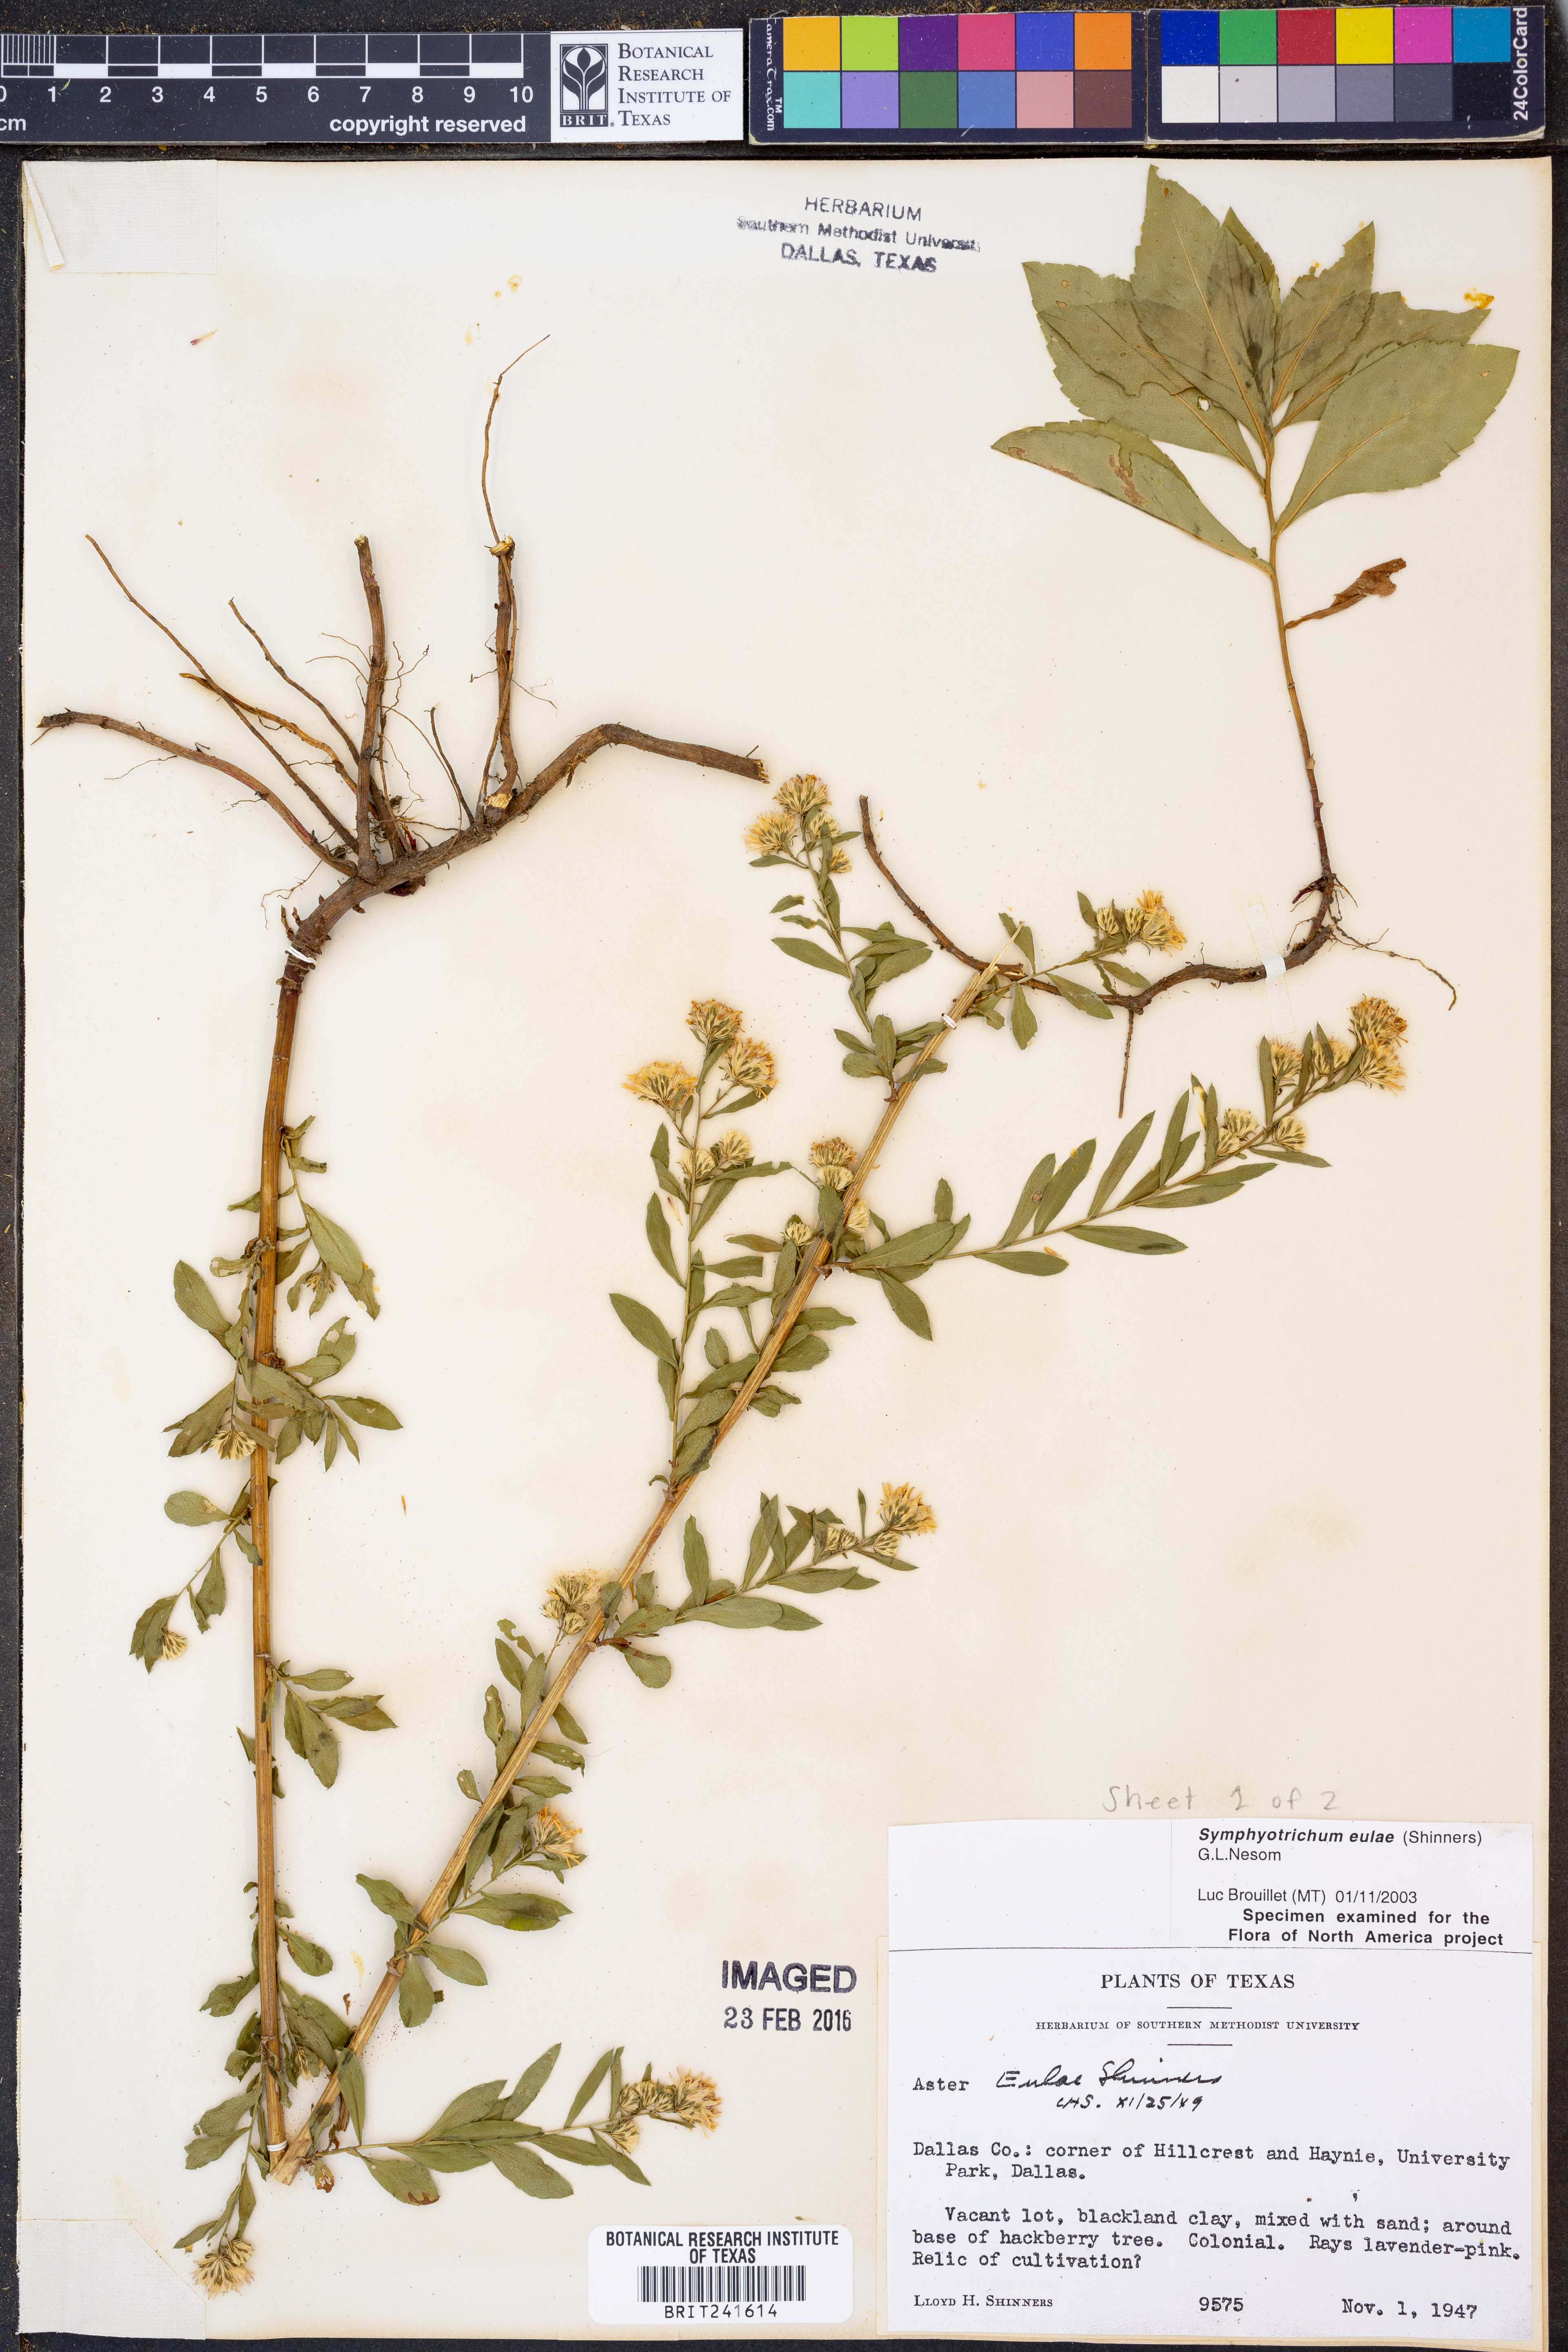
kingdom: Plantae
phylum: Tracheophyta
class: Magnoliopsida
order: Asterales
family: Asteraceae
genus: Symphyotrichum
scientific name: Symphyotrichum eulae
